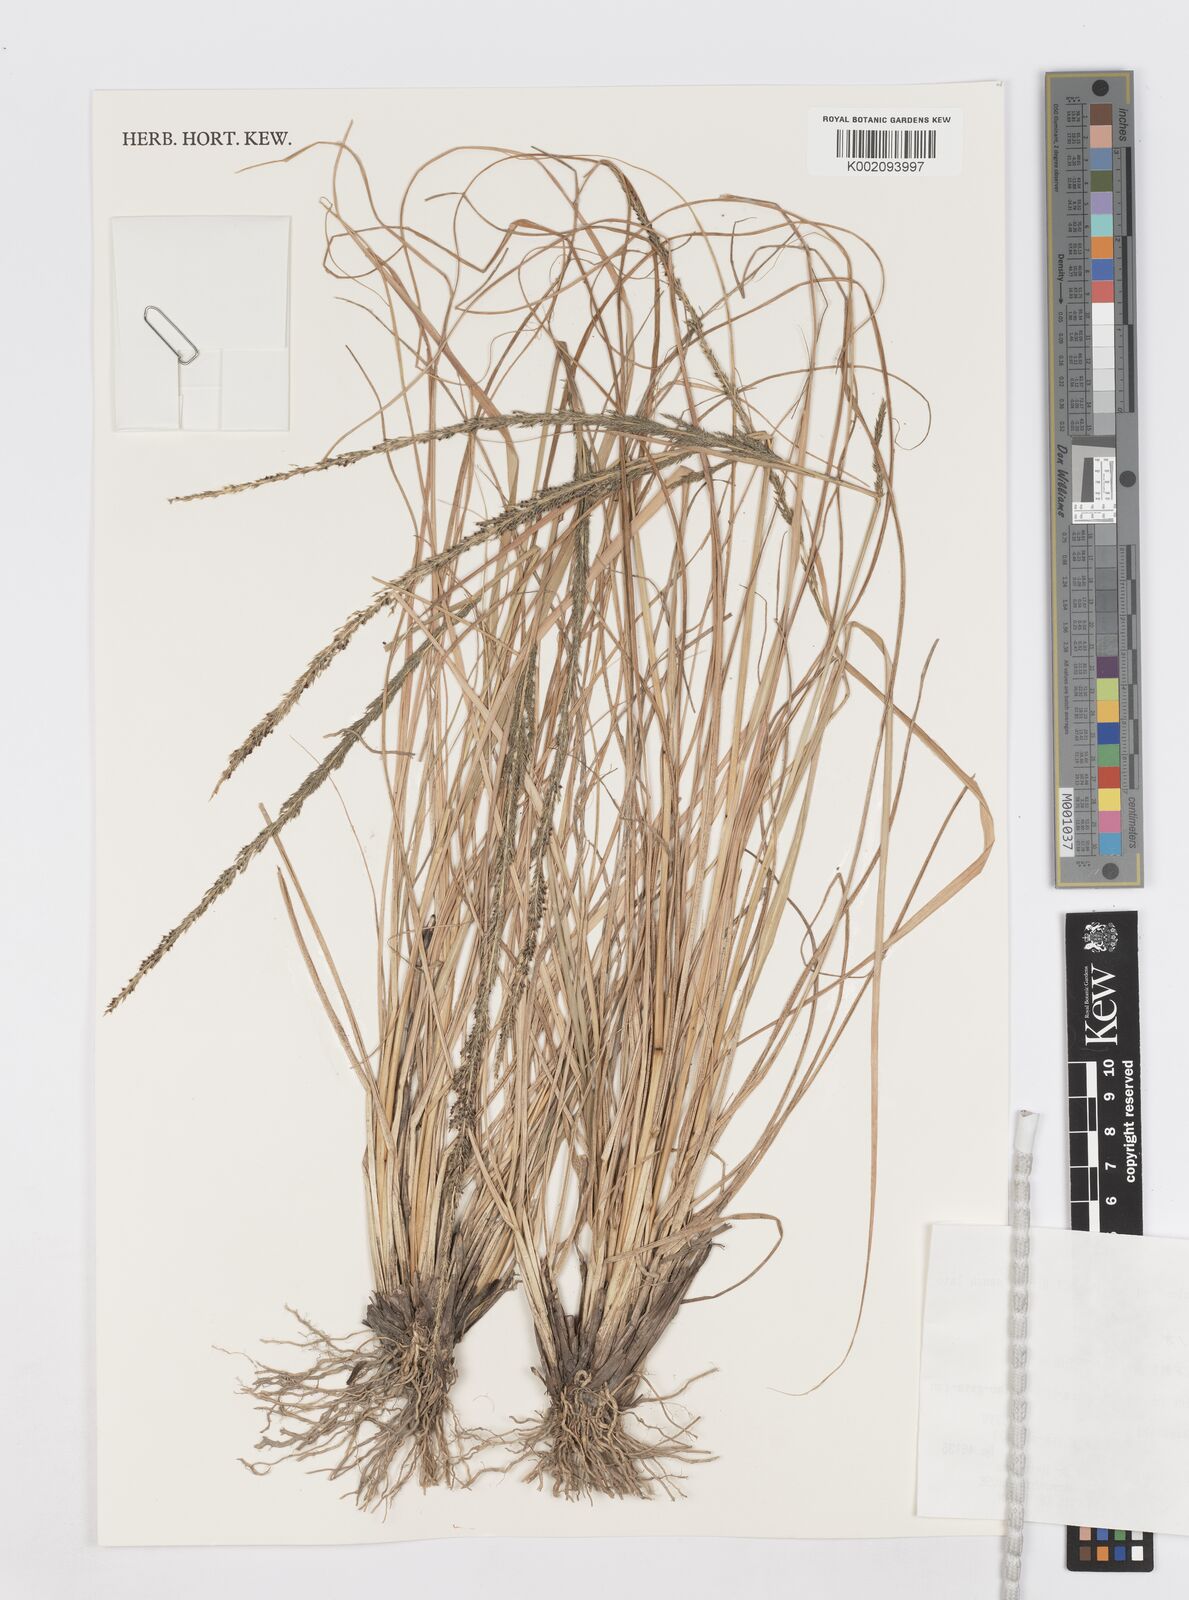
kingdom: Plantae
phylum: Tracheophyta
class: Liliopsida
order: Poales
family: Poaceae
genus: Sporobolus
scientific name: Sporobolus fertilis
